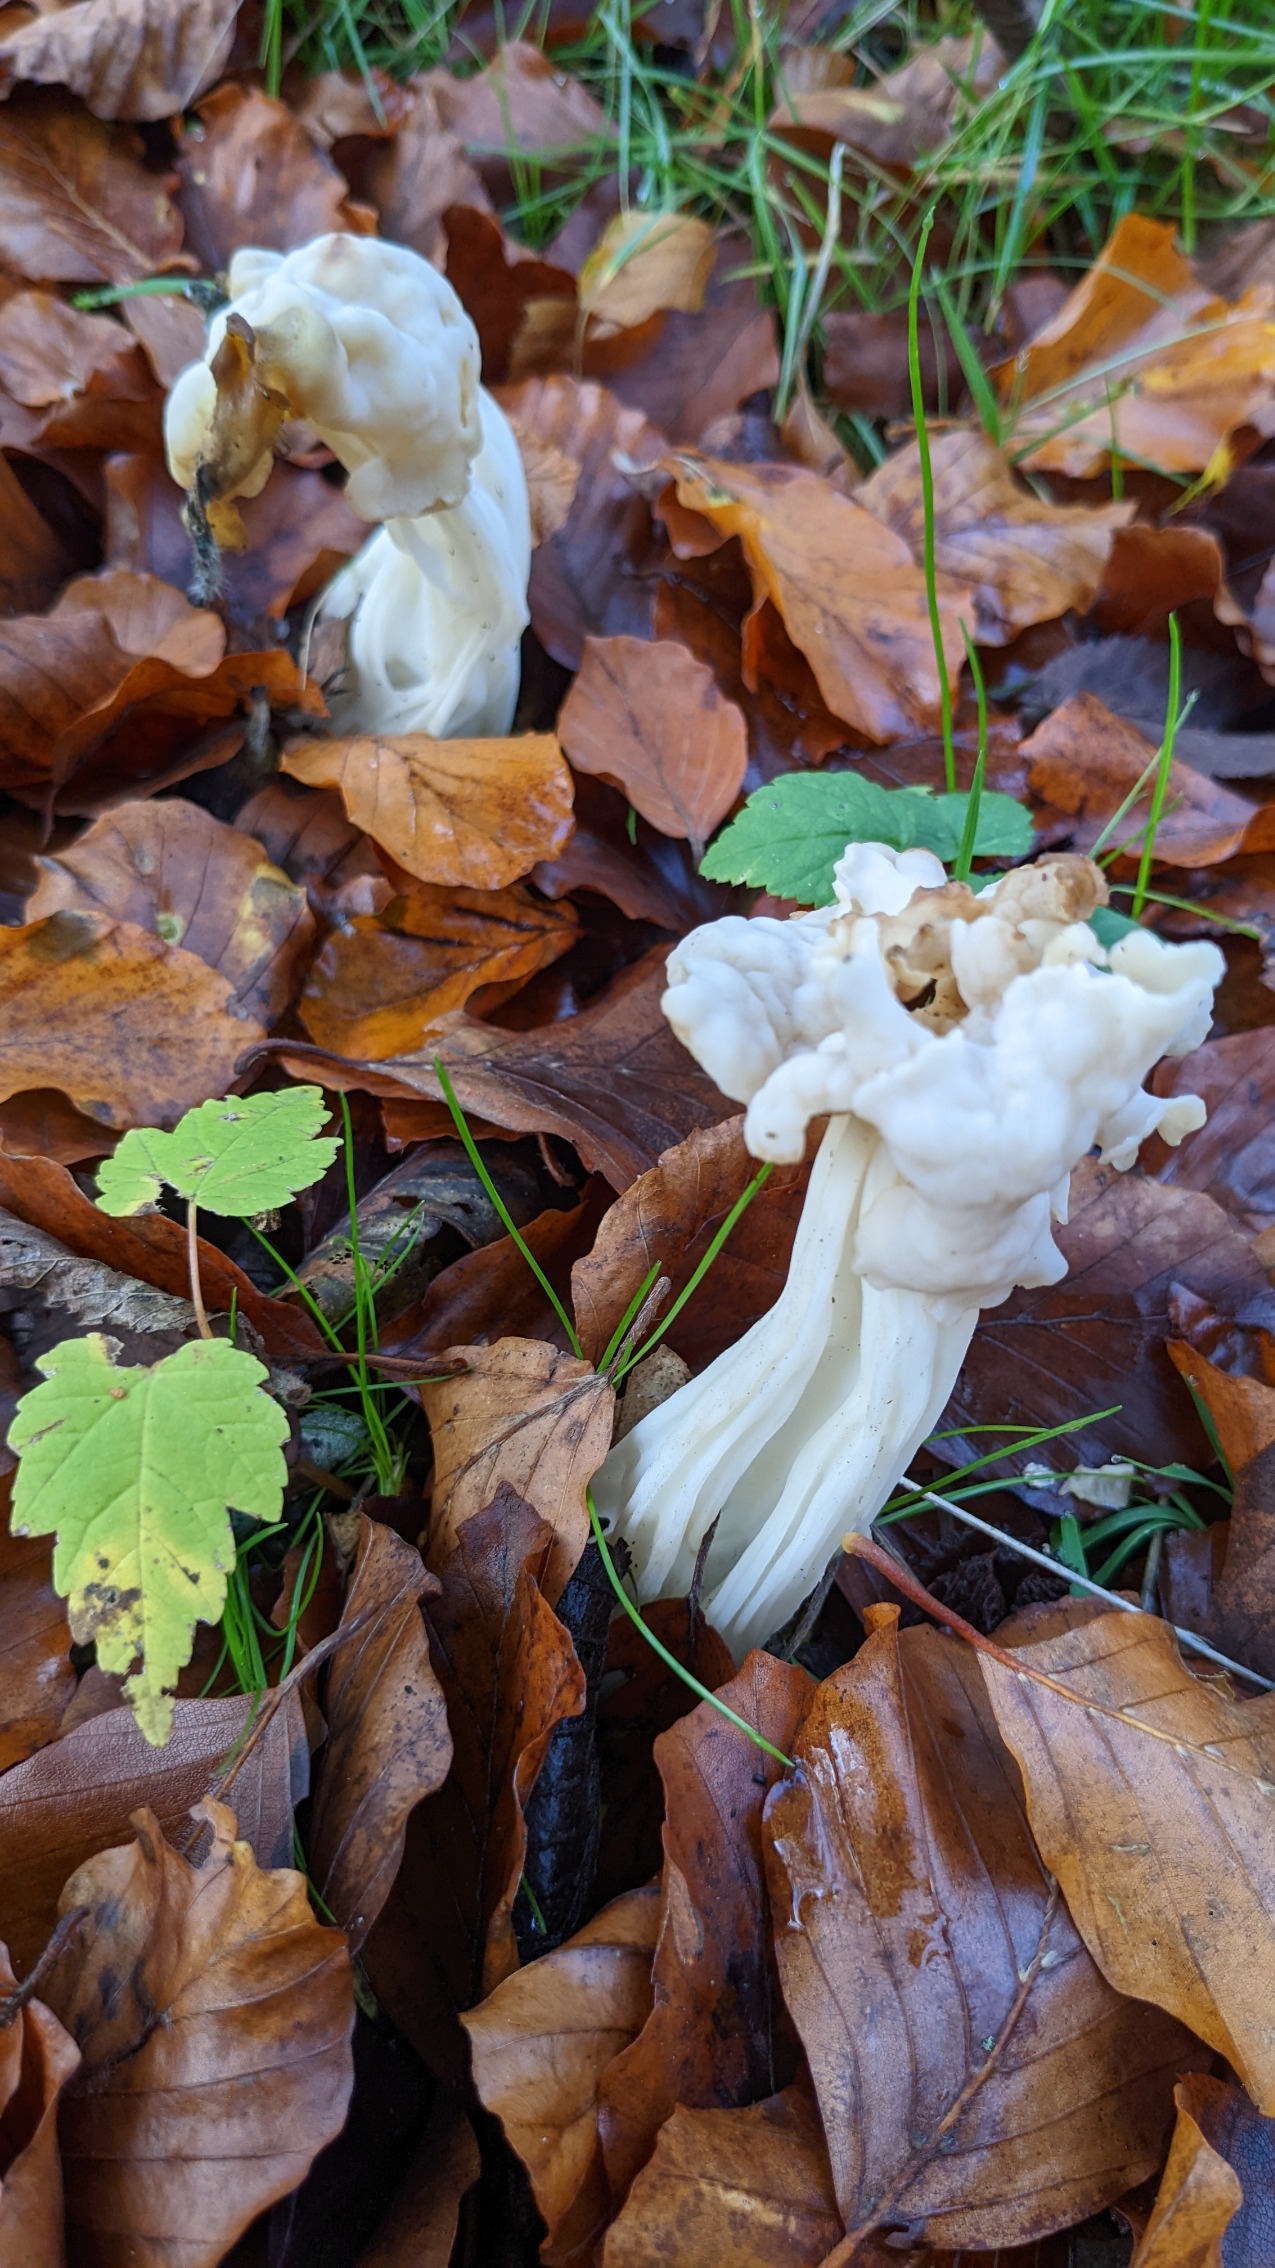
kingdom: Fungi
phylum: Ascomycota
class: Pezizomycetes
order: Pezizales
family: Helvellaceae
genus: Helvella
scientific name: Helvella crispa
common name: Kruset foldhat
